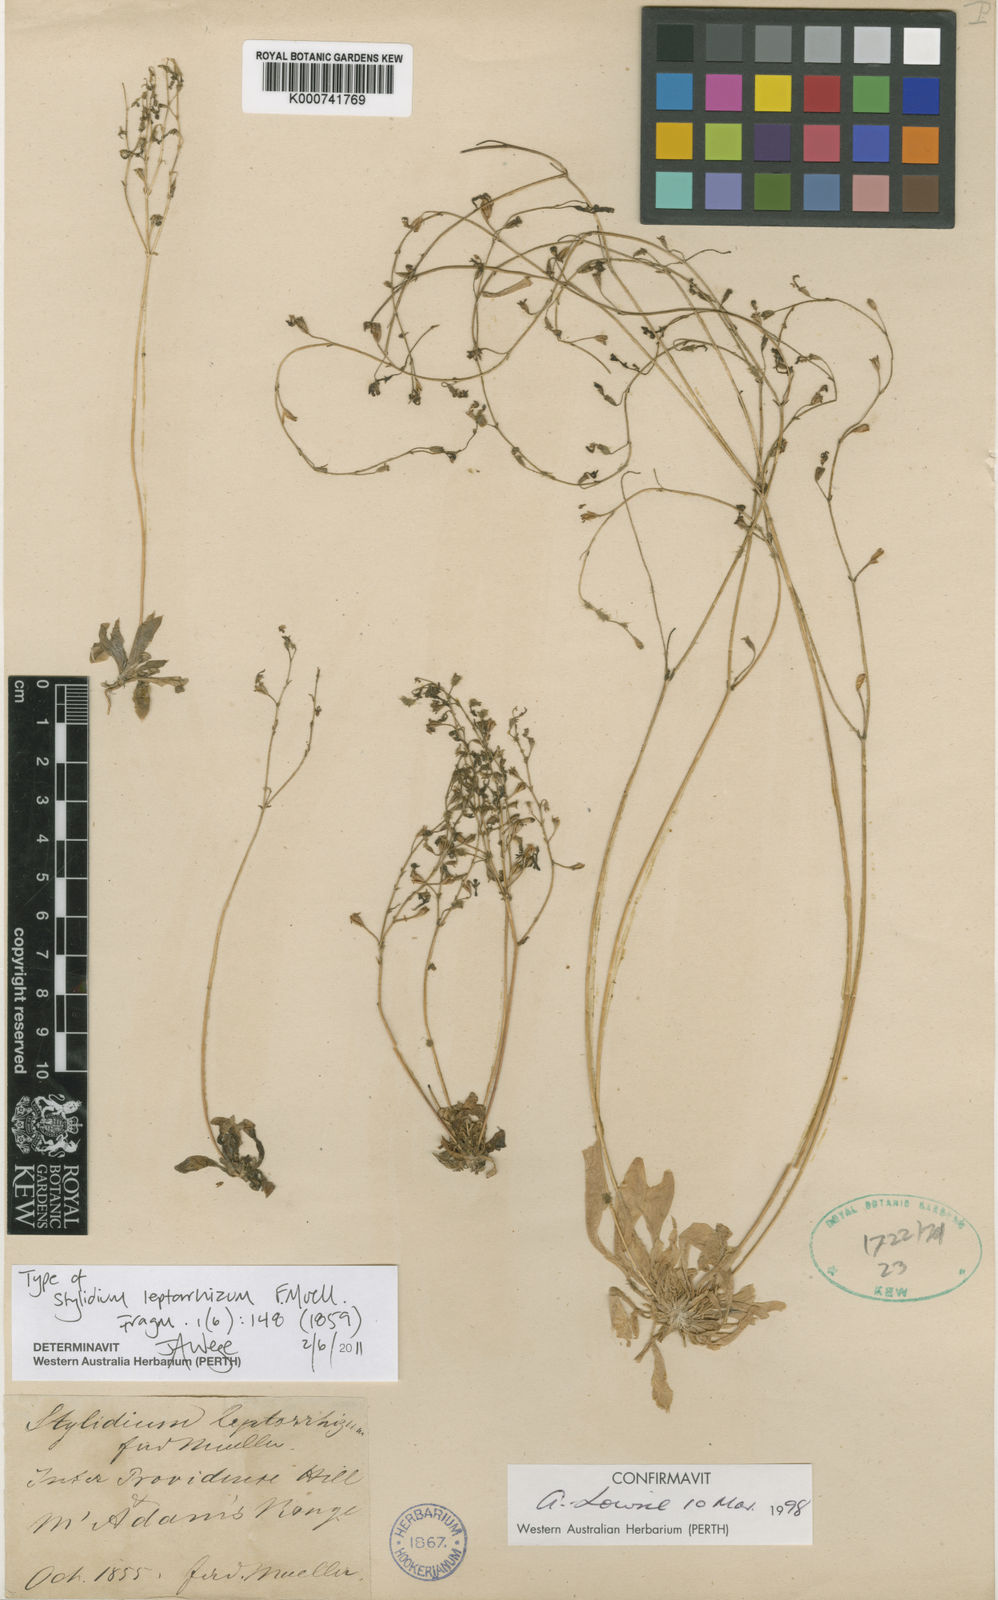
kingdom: Plantae
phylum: Tracheophyta
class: Magnoliopsida
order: Asterales
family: Stylidiaceae
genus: Stylidium
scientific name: Stylidium leptorrhizum
